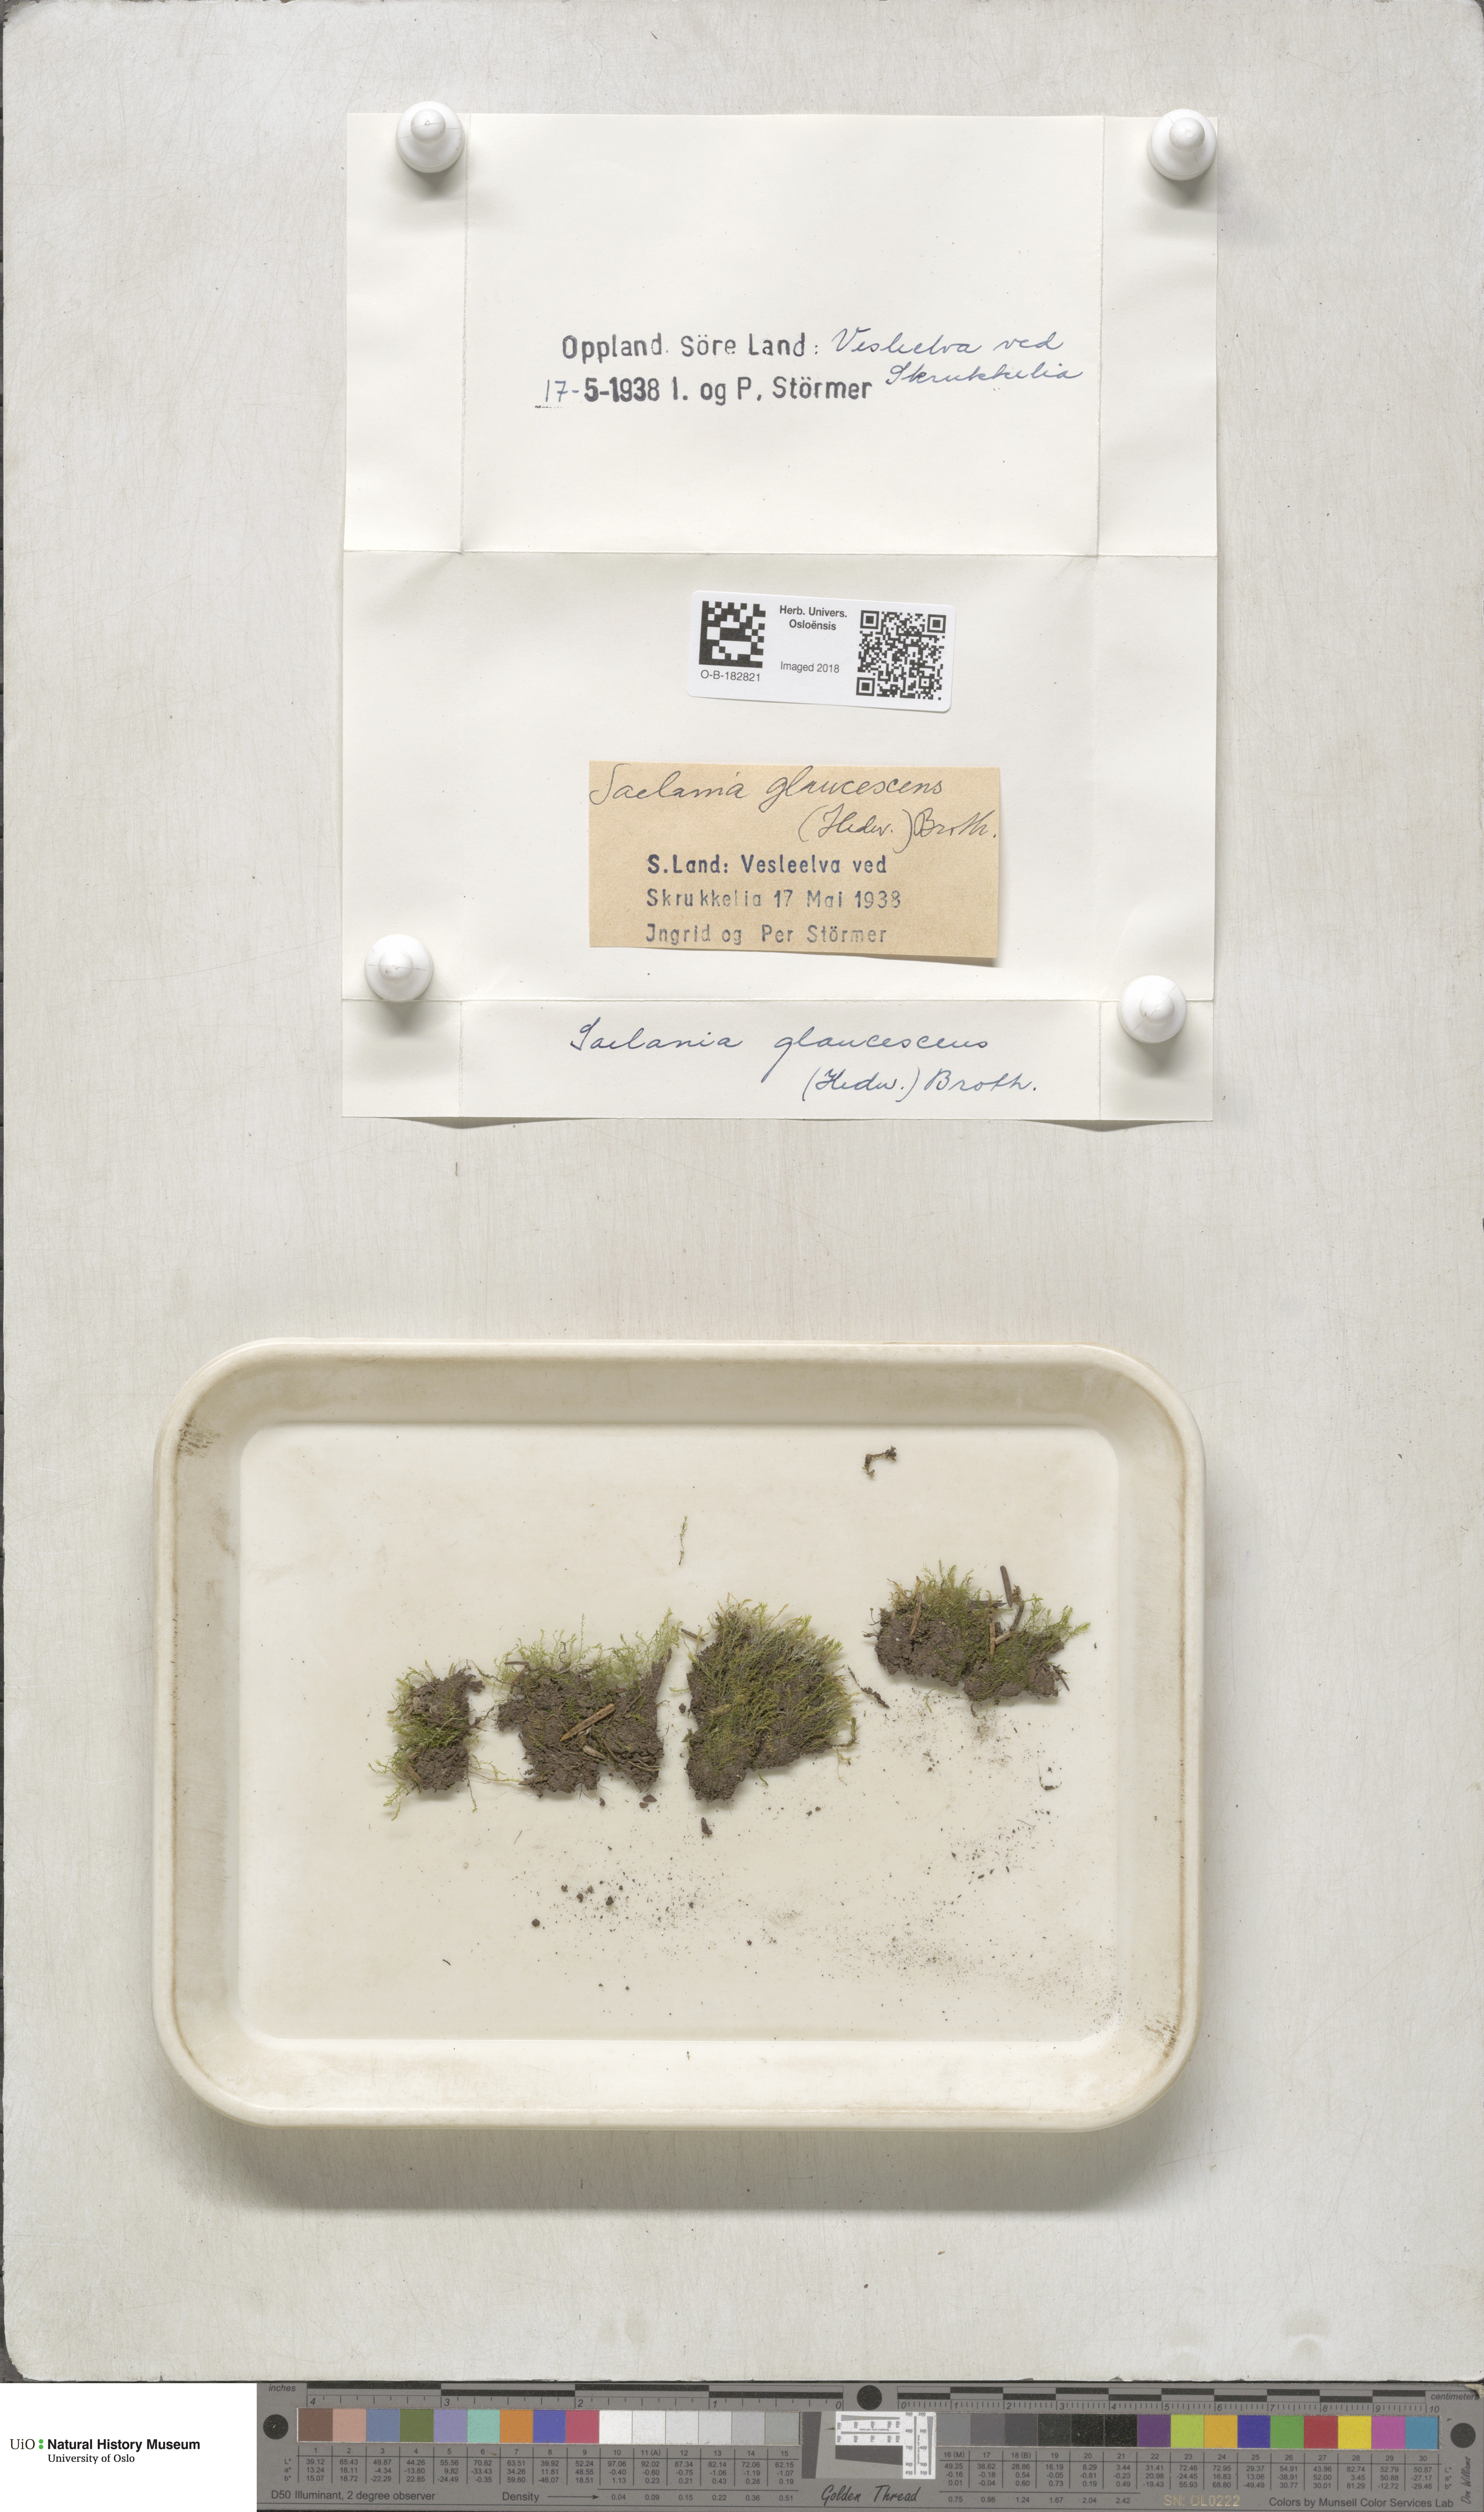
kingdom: Plantae
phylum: Bryophyta
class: Bryopsida
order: Grimmiales
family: Saelaniaceae
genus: Saelania
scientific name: Saelania glaucescens
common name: Blue dew-moss
